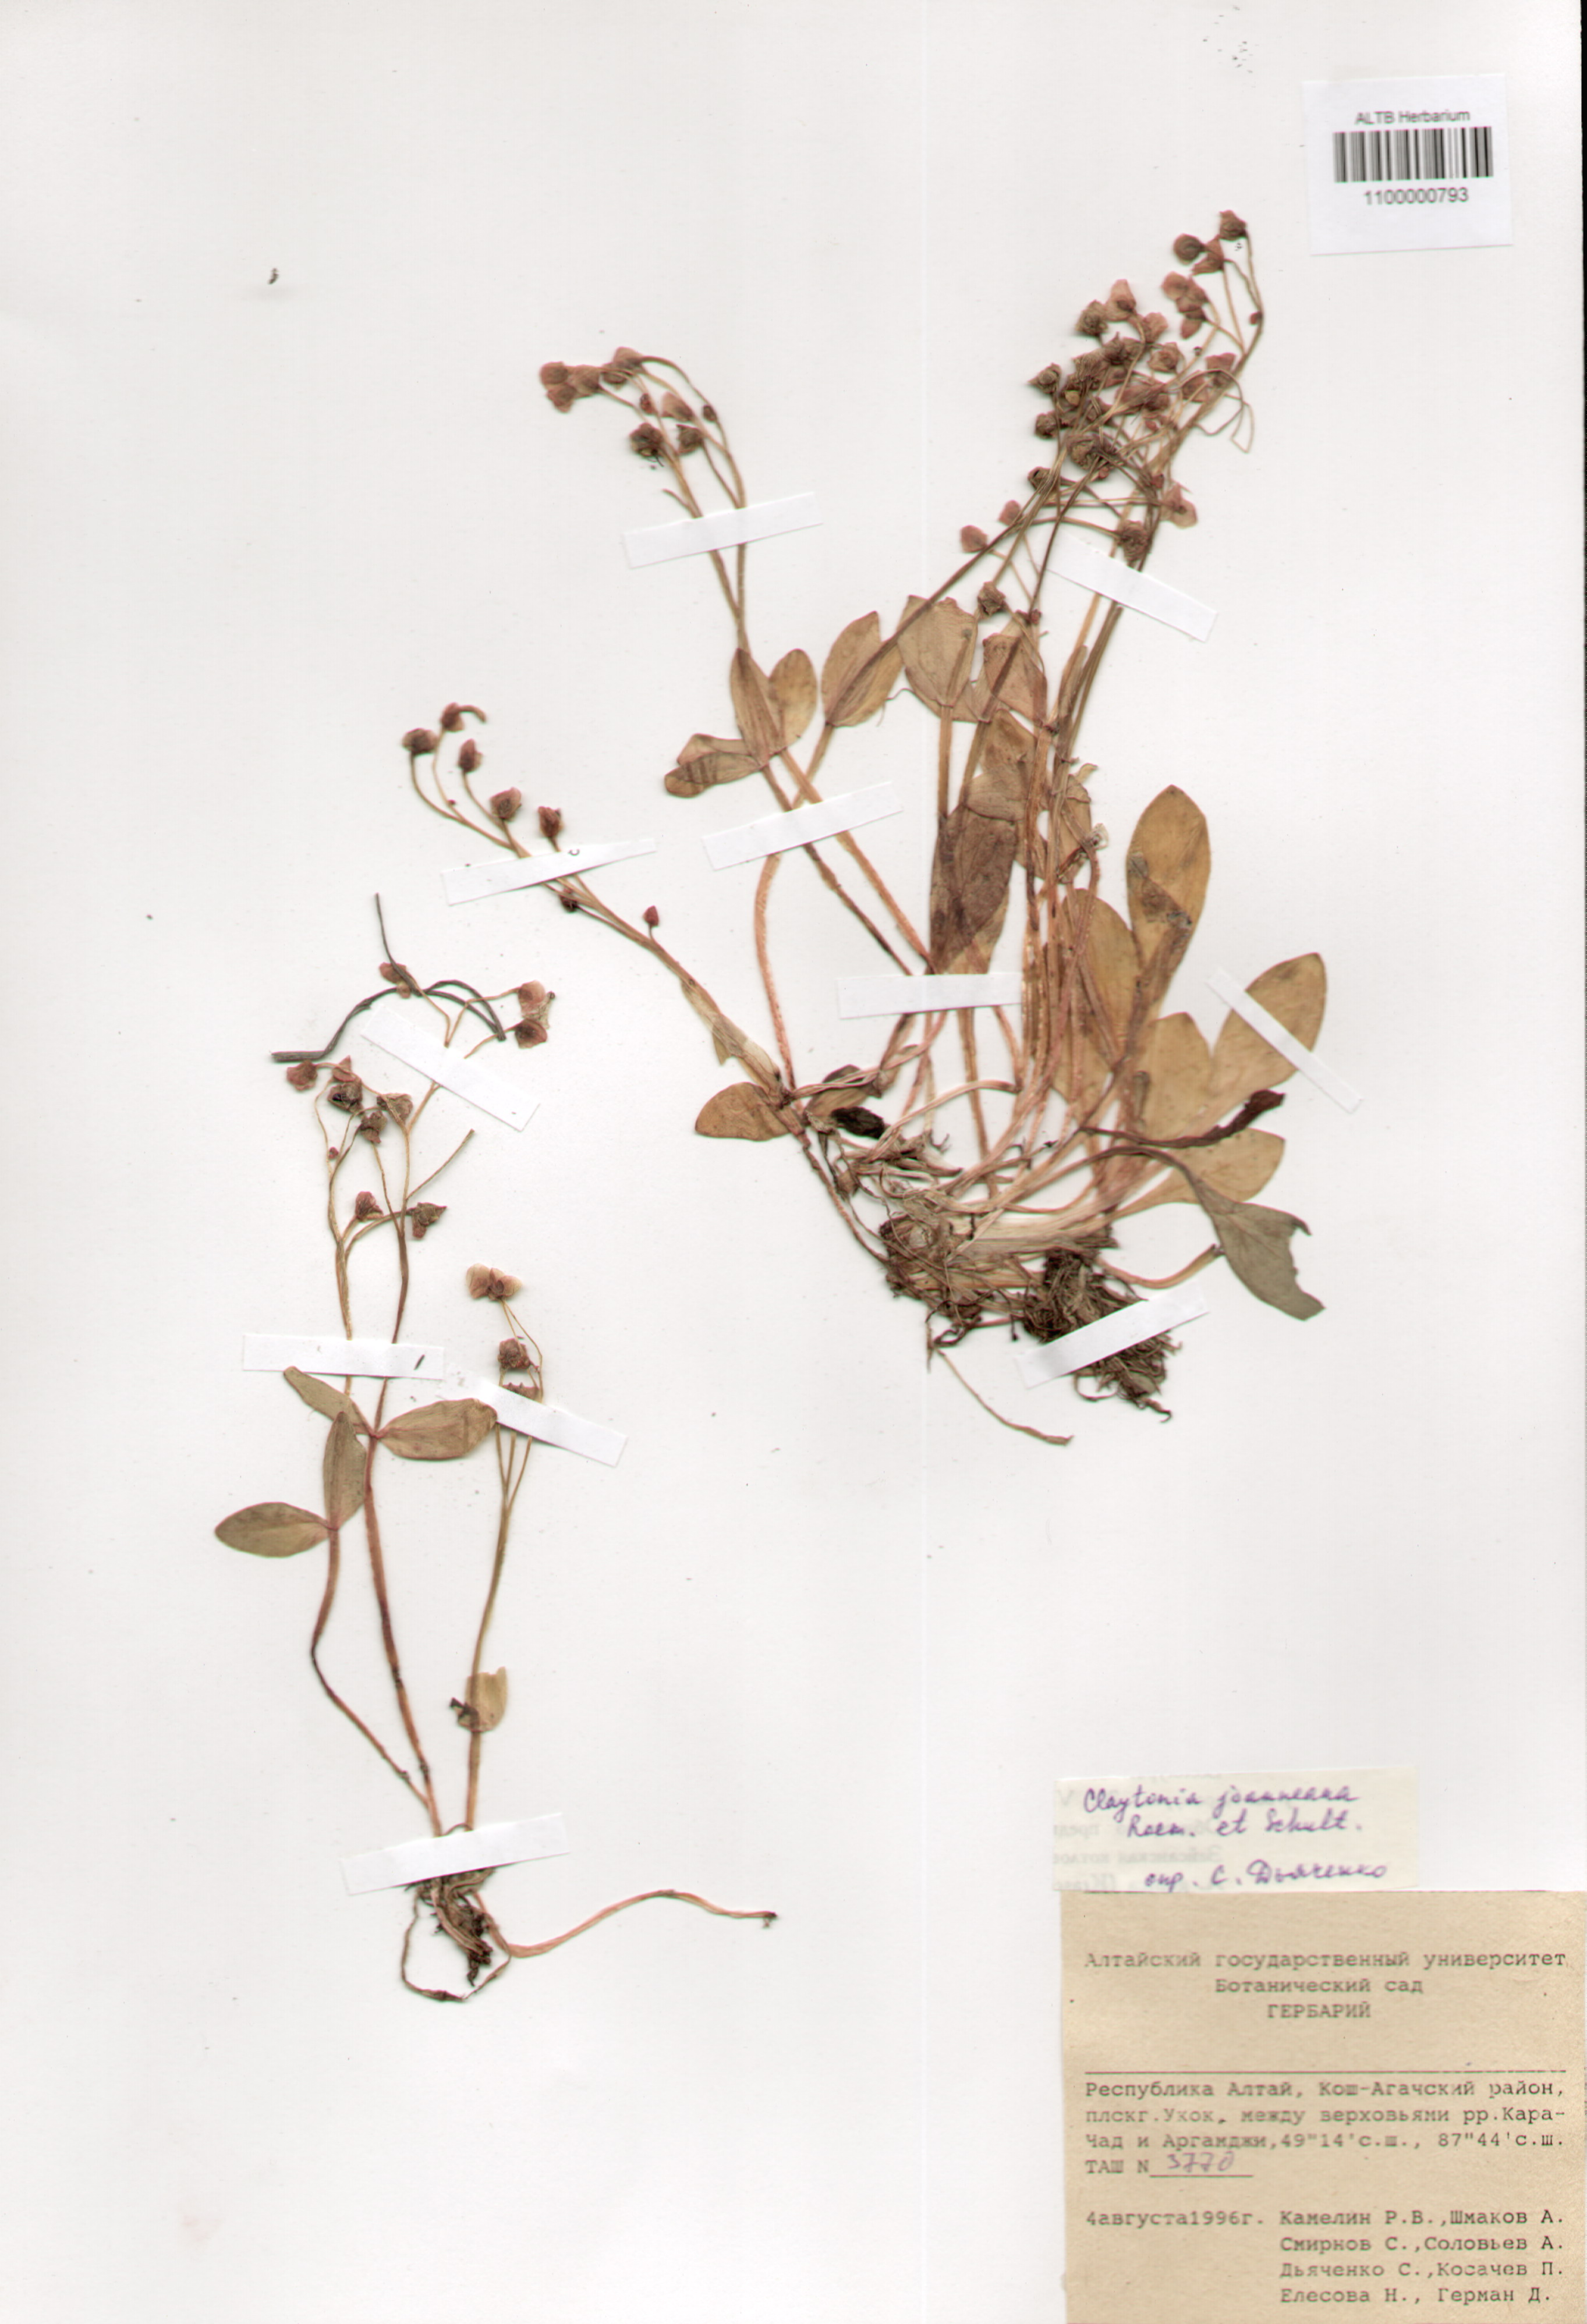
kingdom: Plantae
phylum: Tracheophyta
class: Magnoliopsida
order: Caryophyllales
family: Montiaceae
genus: Claytonia
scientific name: Claytonia joanneana
